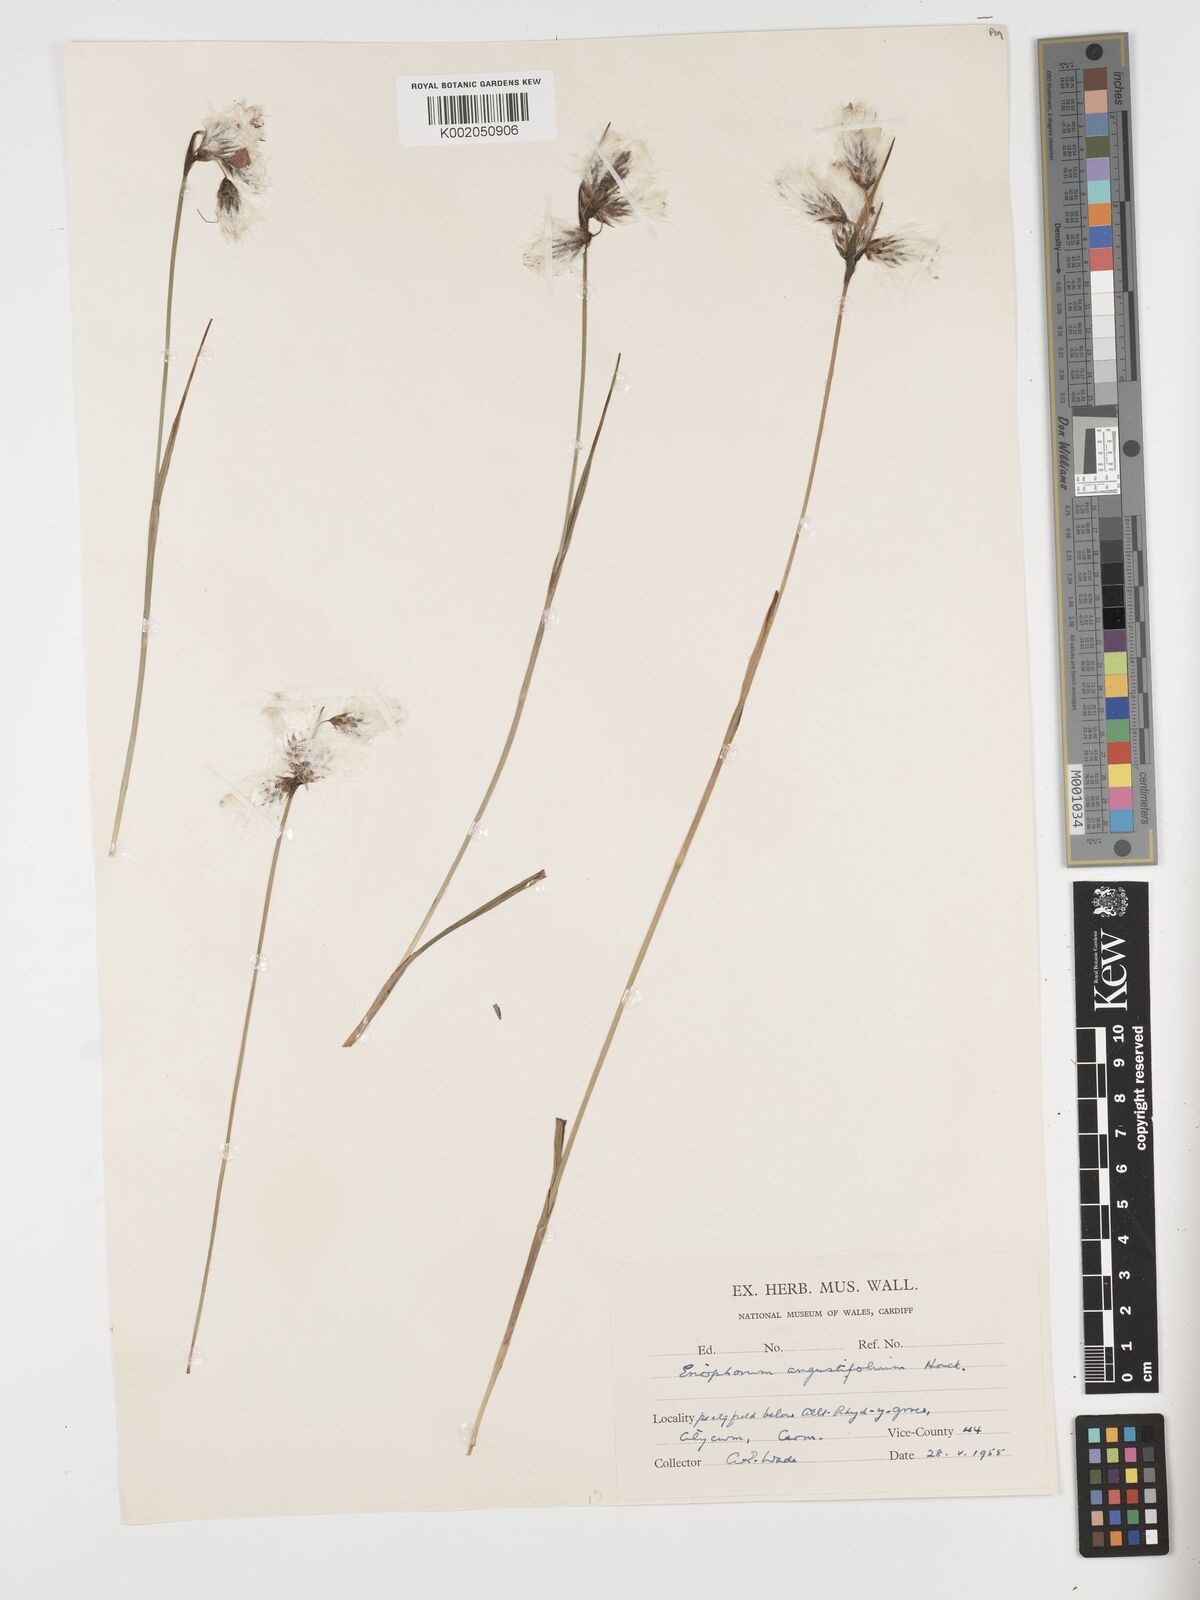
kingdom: Plantae
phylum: Tracheophyta
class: Liliopsida
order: Poales
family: Cyperaceae
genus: Eriophorum
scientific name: Eriophorum angustifolium
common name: Common cottongrass
